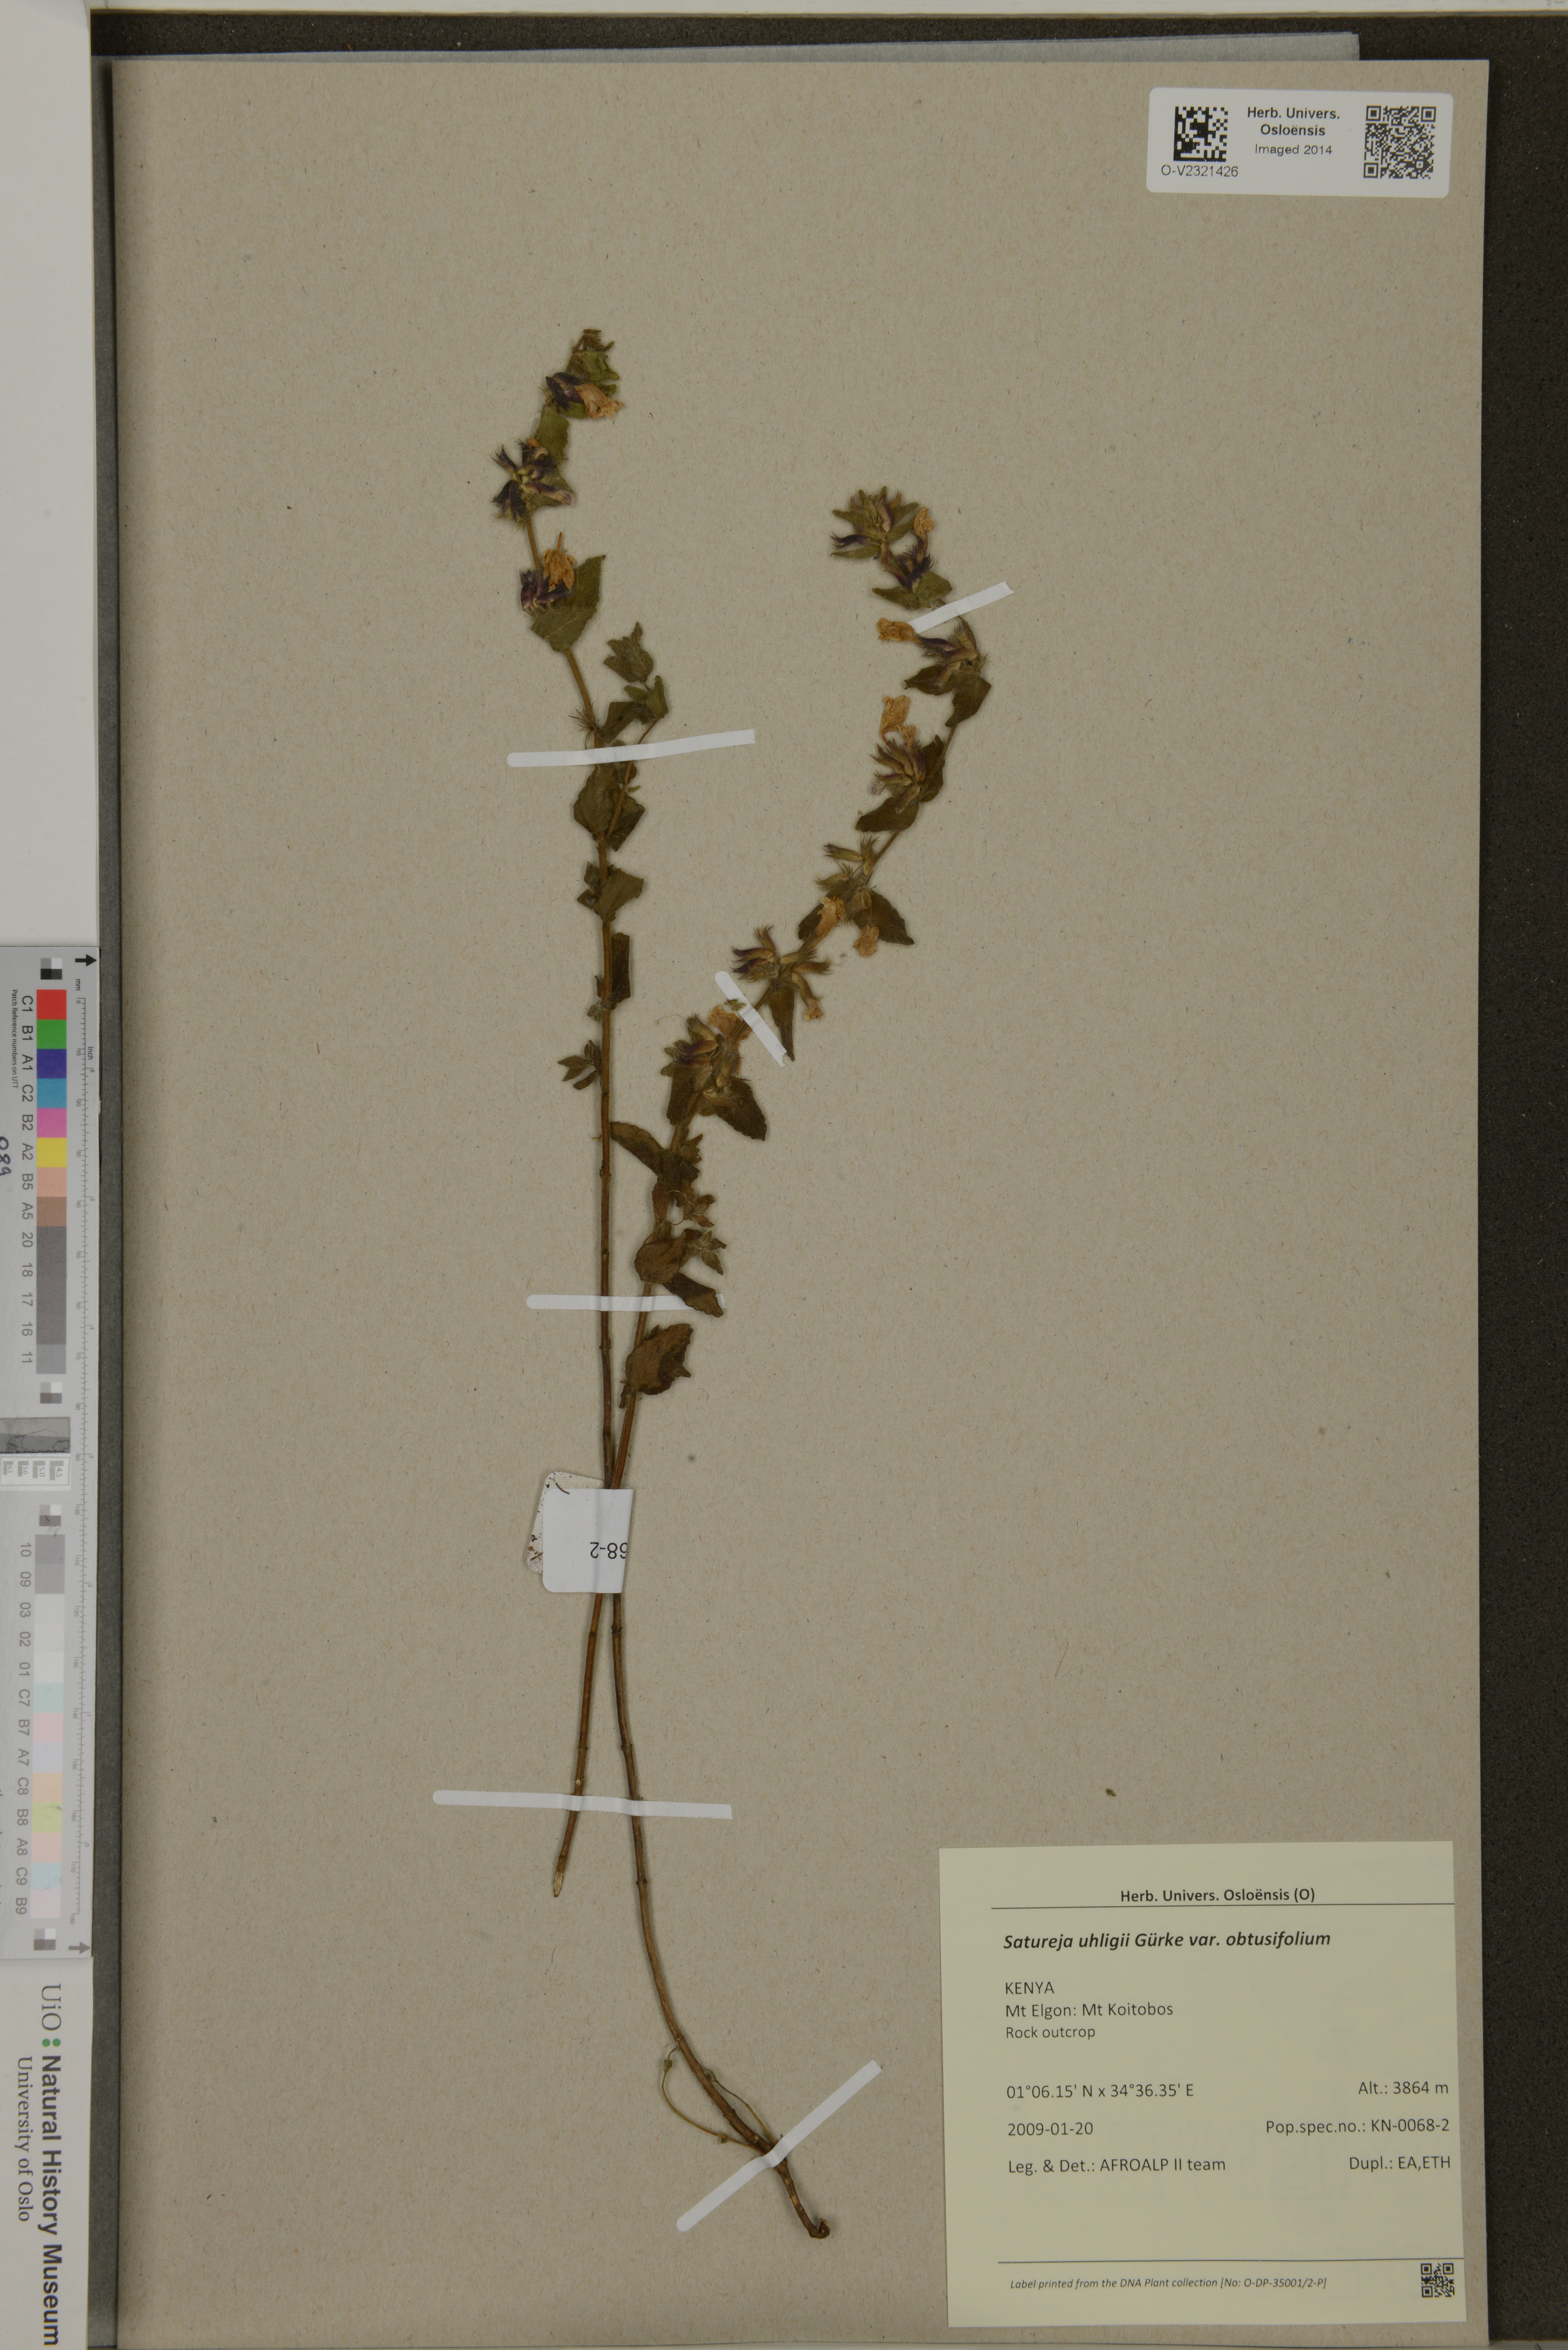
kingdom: Plantae
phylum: Tracheophyta
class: Magnoliopsida
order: Lamiales
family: Lamiaceae
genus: Clinopodium
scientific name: Clinopodium uhligii
